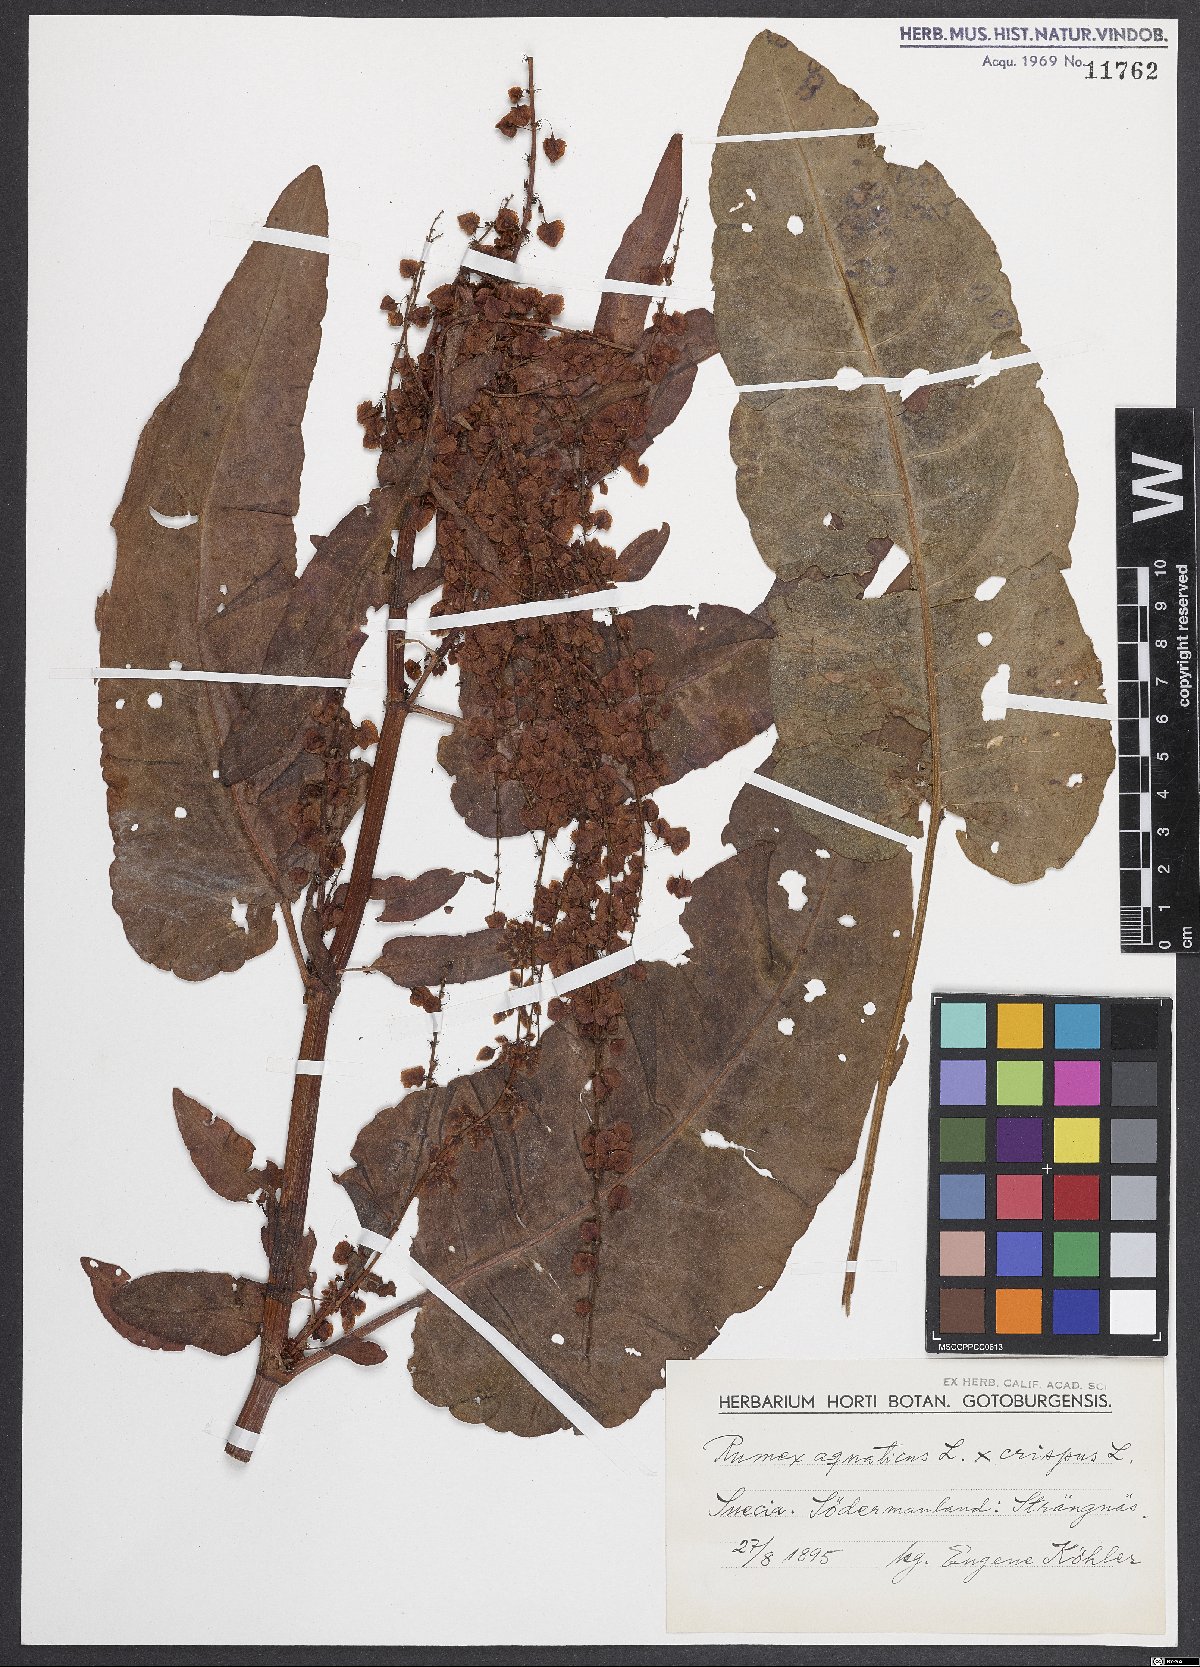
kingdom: Plantae
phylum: Tracheophyta
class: Magnoliopsida
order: Caryophyllales
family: Polygonaceae
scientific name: Polygonaceae
